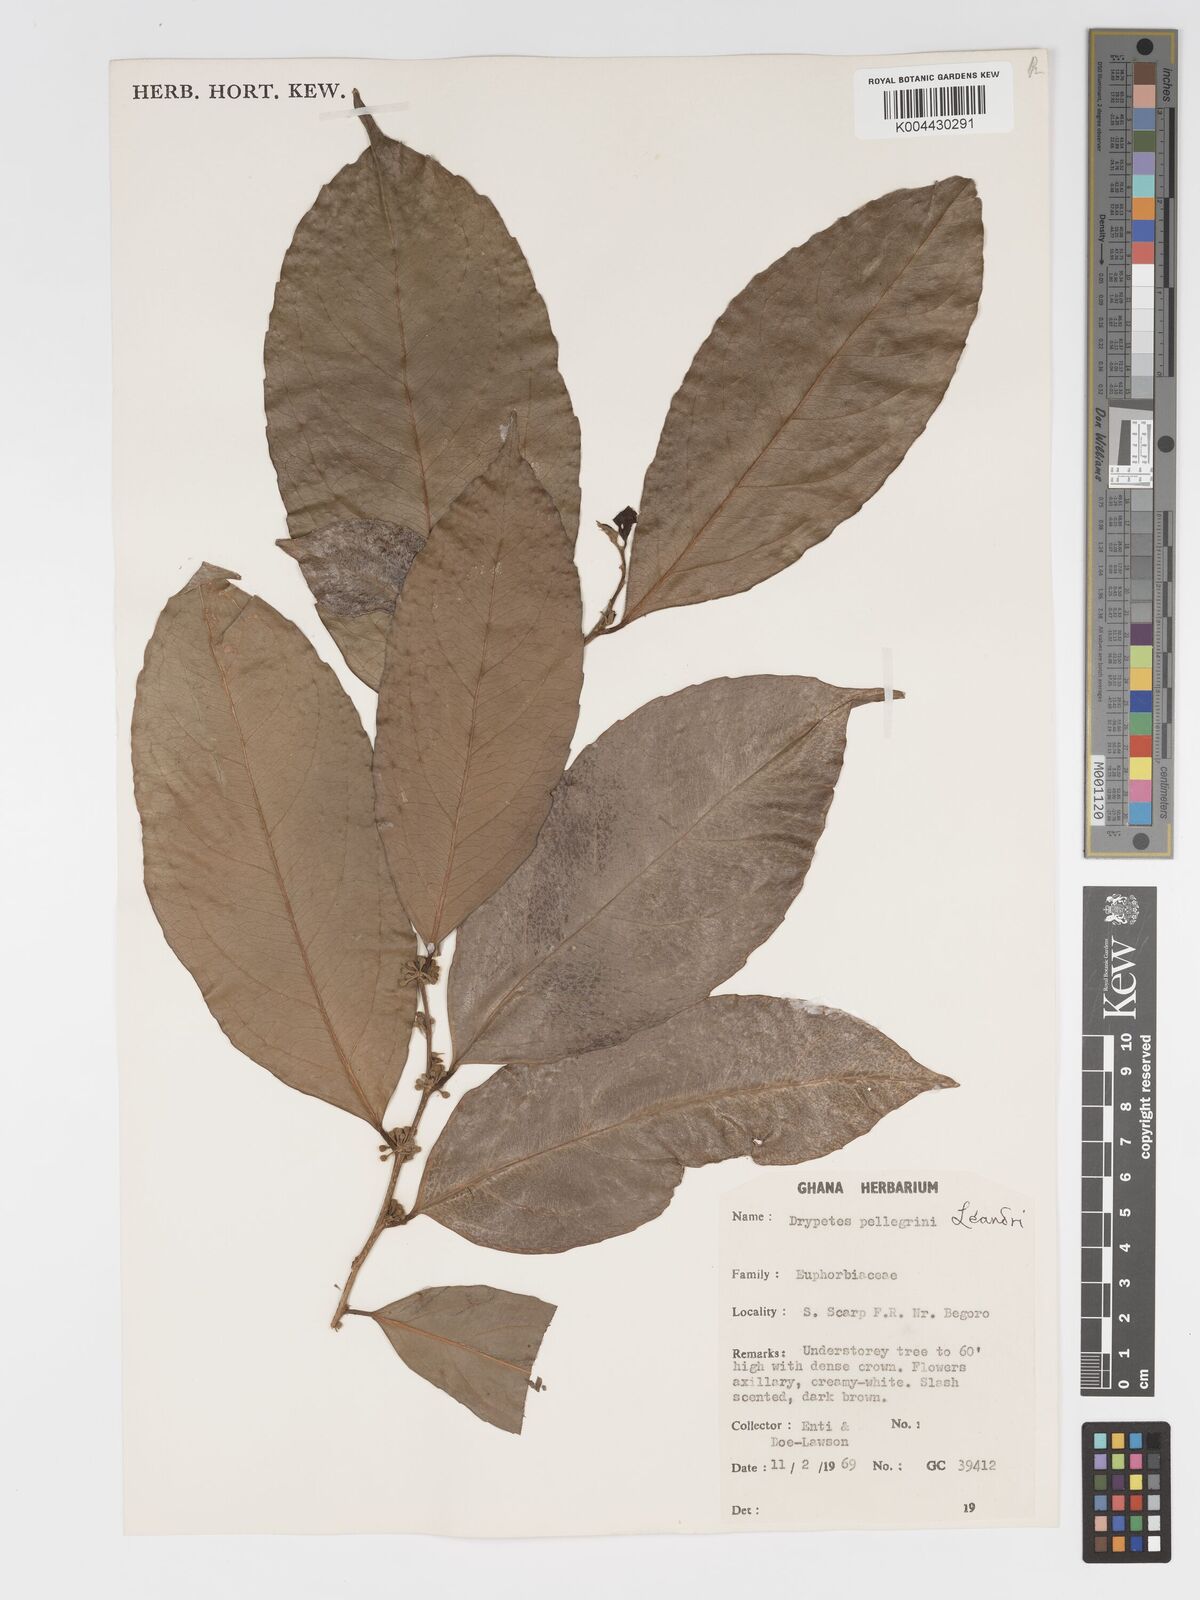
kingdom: Plantae
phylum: Tracheophyta
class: Magnoliopsida
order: Malpighiales
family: Putranjivaceae
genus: Drypetes
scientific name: Drypetes pellegrinii
